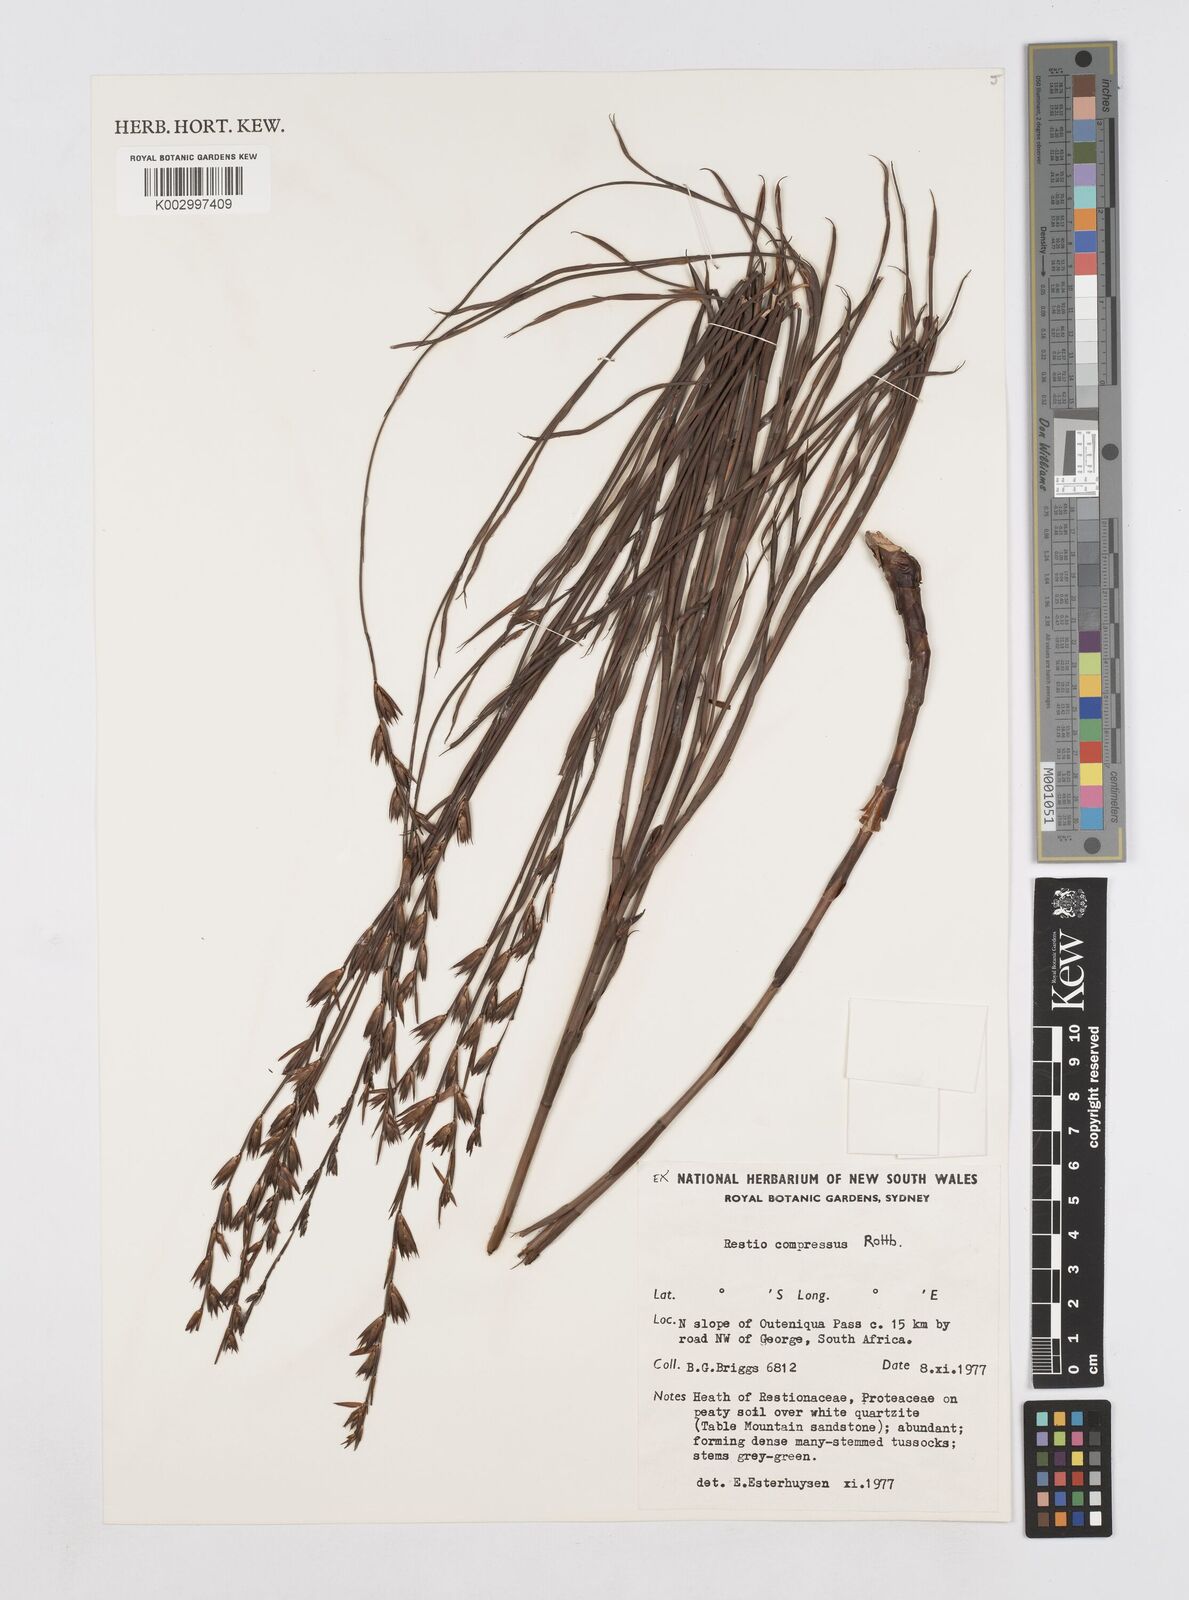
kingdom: Plantae
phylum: Tracheophyta
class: Liliopsida
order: Poales
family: Restionaceae
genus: Platycaulos
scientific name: Platycaulos compressus
